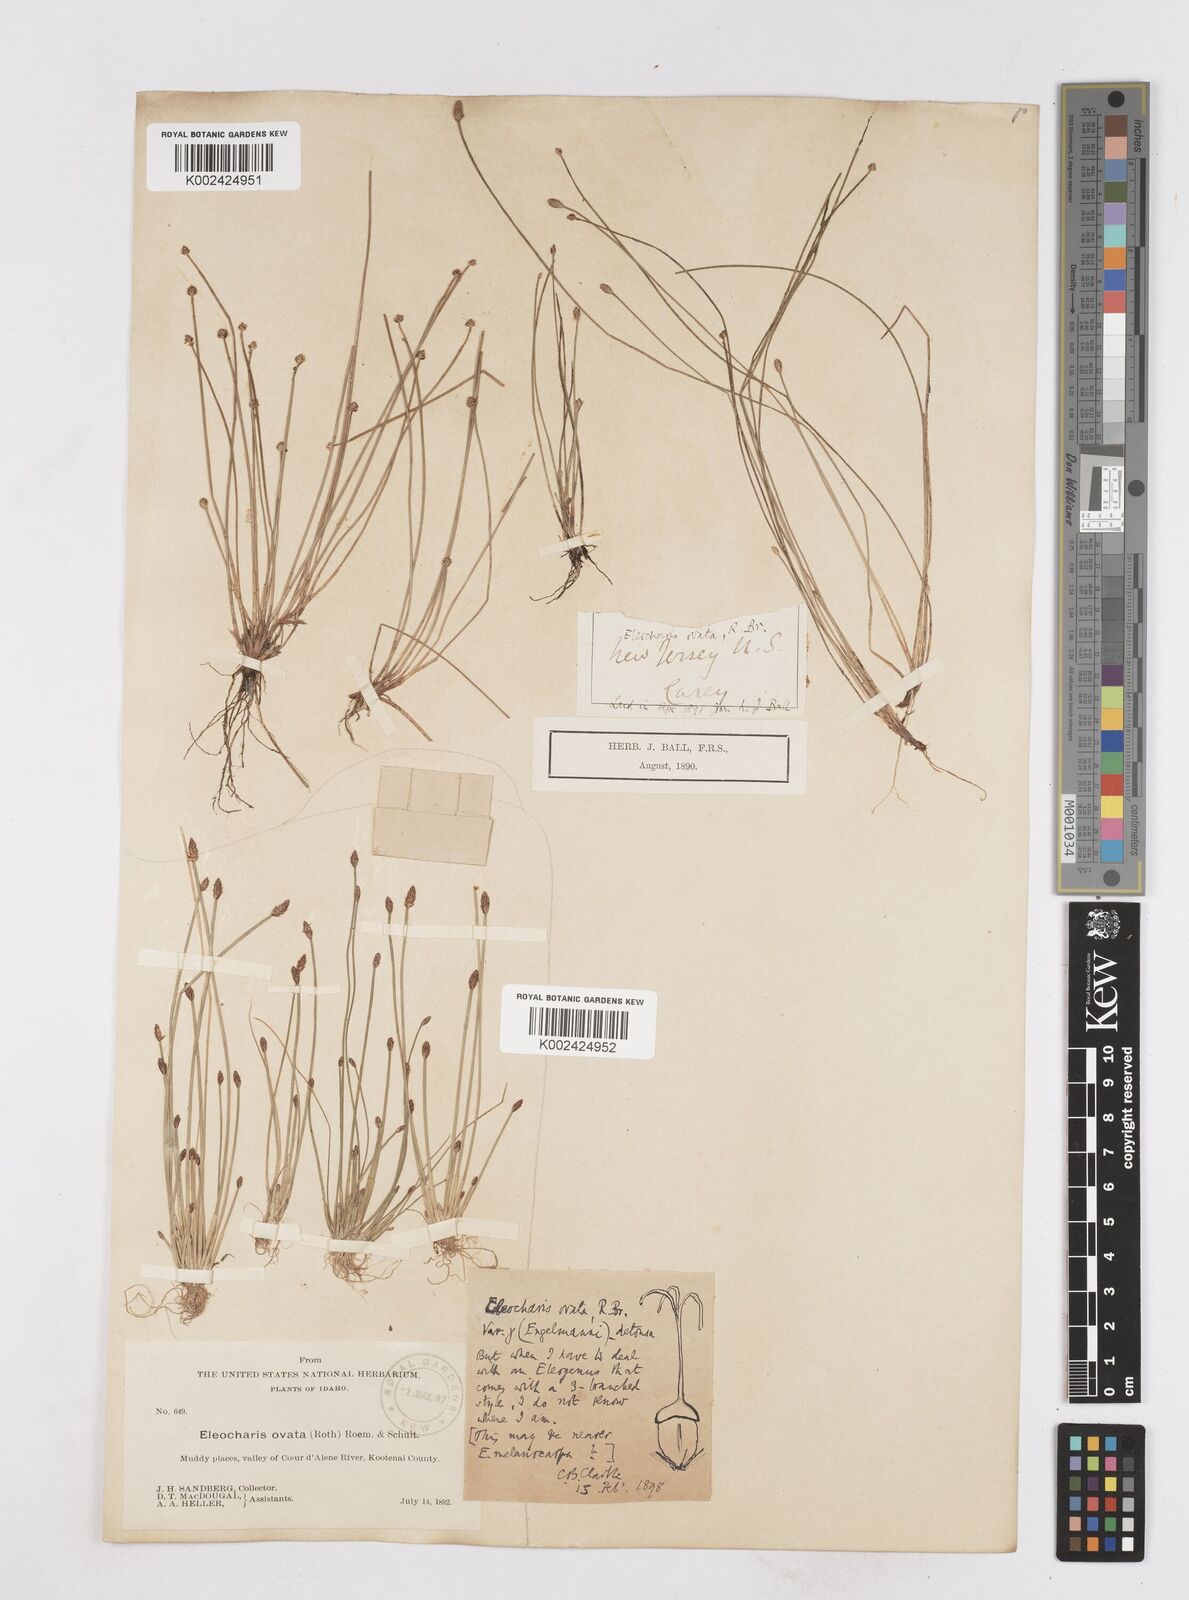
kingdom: Plantae
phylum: Tracheophyta
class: Liliopsida
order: Poales
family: Cyperaceae
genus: Eleocharis
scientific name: Eleocharis engelmannii
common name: Engelmann's spikerush
